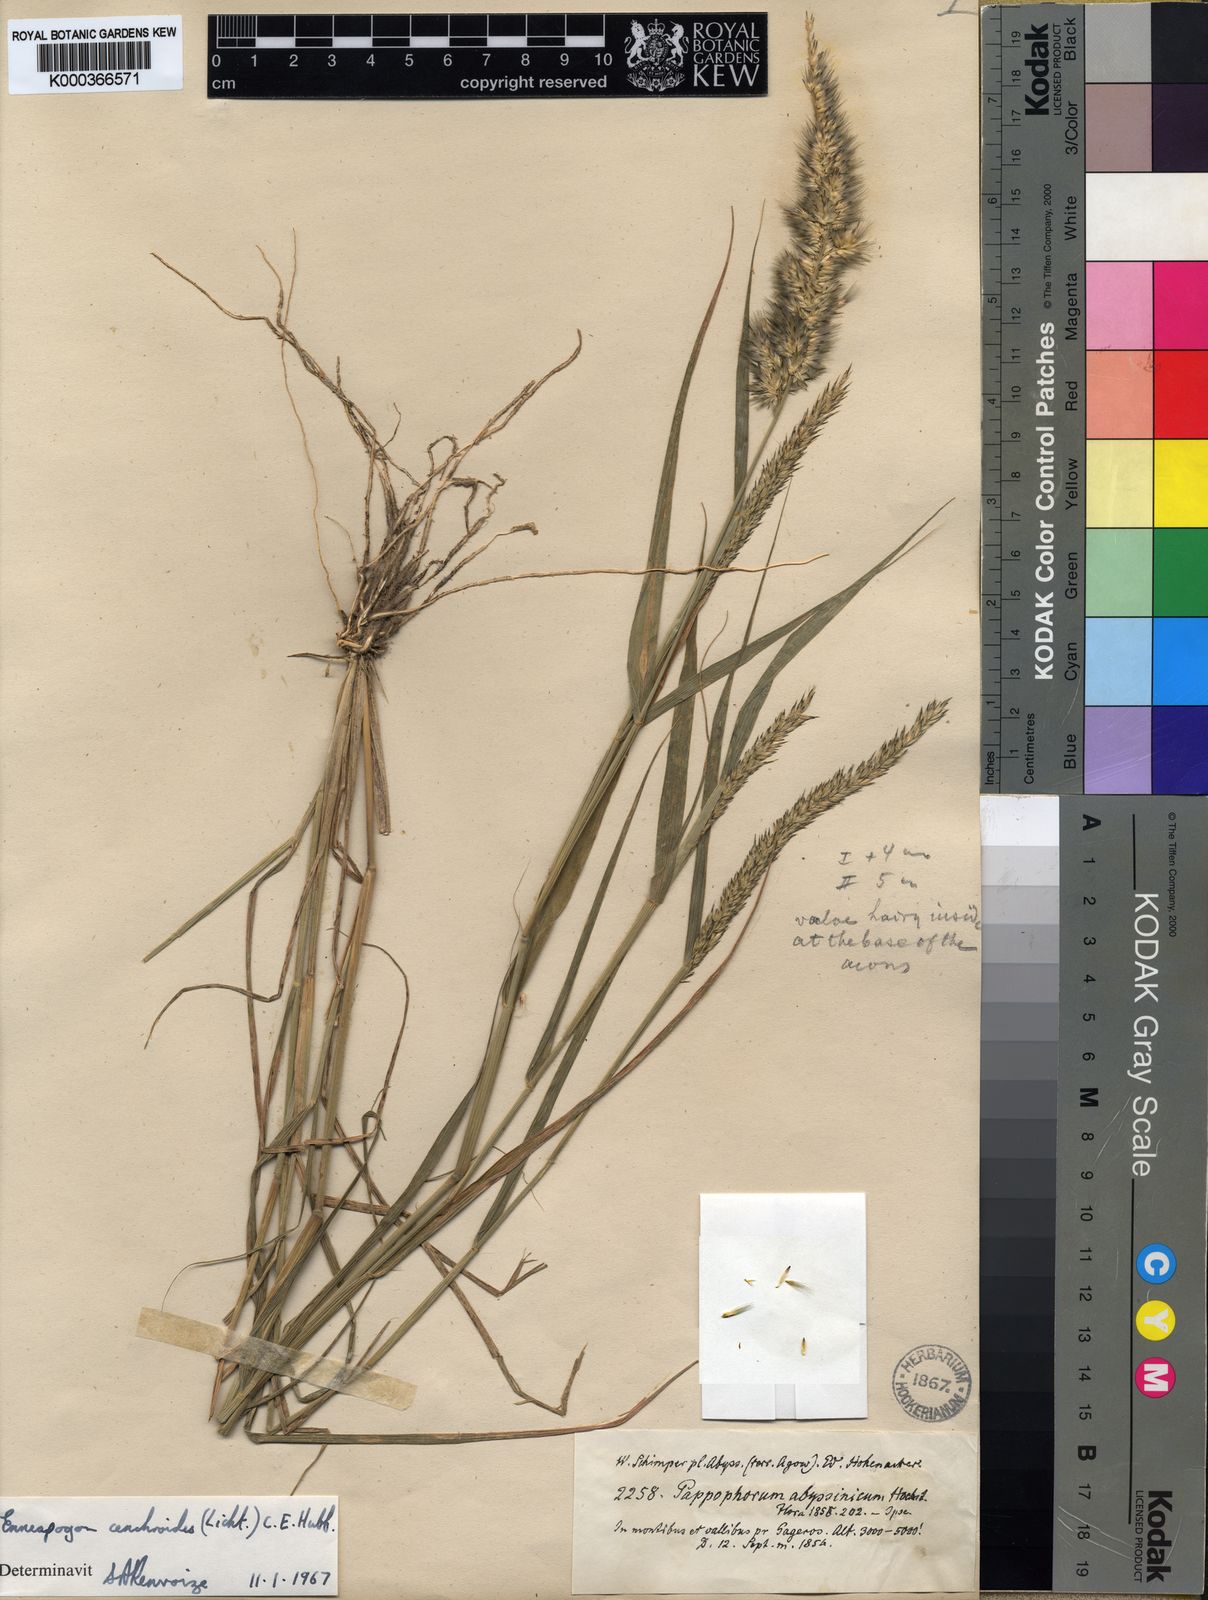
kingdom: Plantae
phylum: Tracheophyta
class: Liliopsida
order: Poales
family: Poaceae
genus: Enneapogon
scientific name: Enneapogon cenchroides
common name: Soft feather pappusgrass
